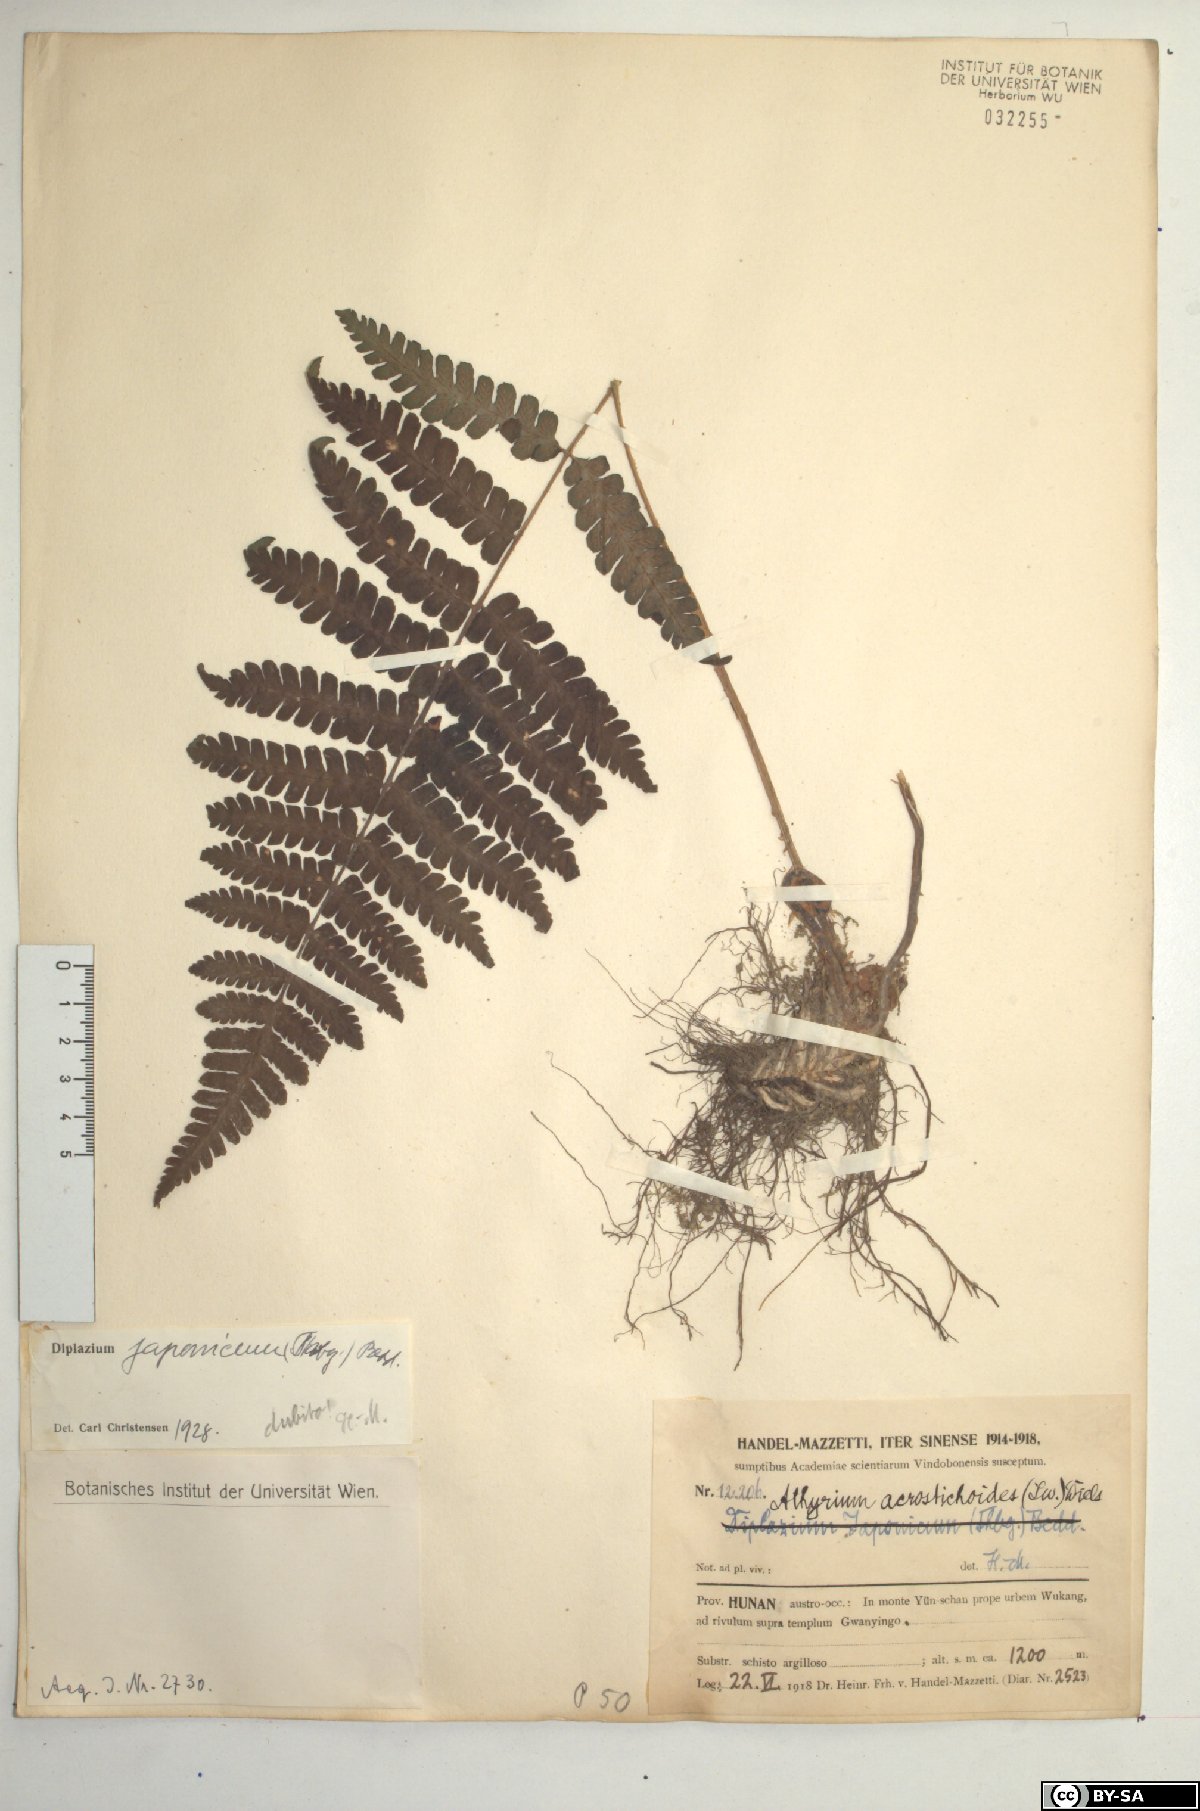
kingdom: Plantae
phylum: Tracheophyta
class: Polypodiopsida
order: Polypodiales
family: Athyriaceae
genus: Deparia
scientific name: Deparia acrostichoides
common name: Silver false spleenwort
